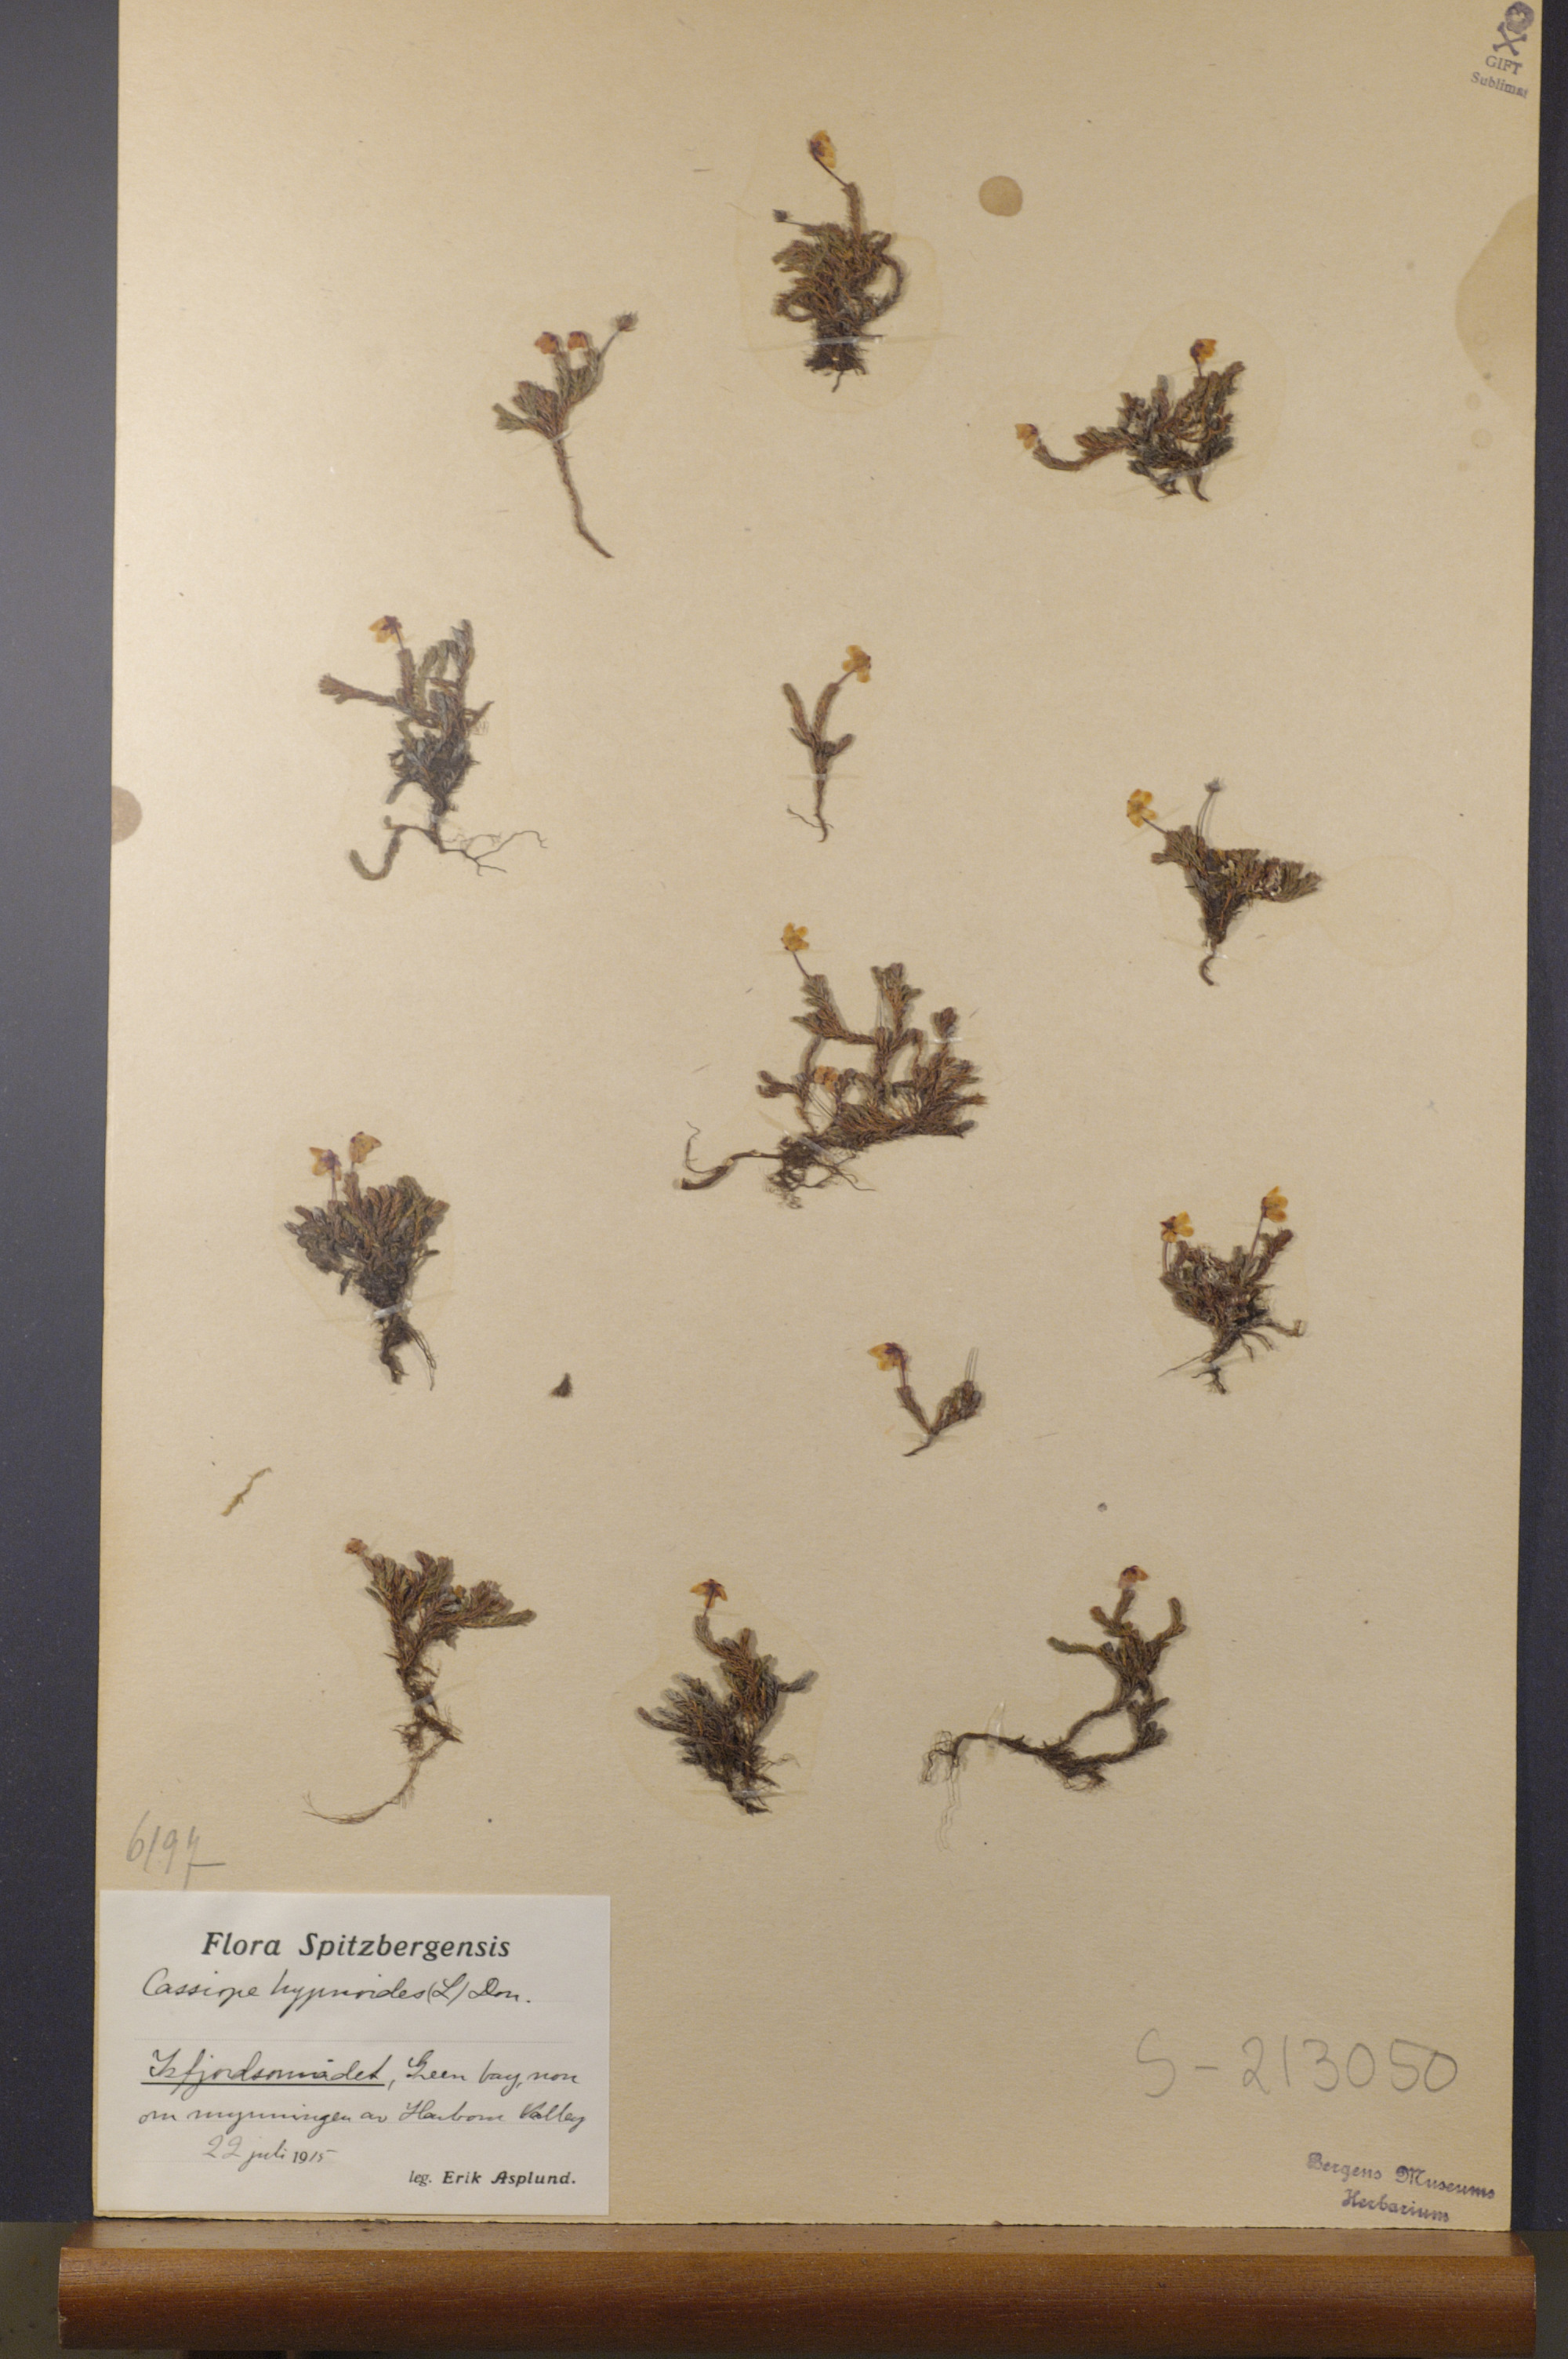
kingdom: Plantae
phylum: Tracheophyta
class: Magnoliopsida
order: Ericales
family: Ericaceae
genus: Harrimanella
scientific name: Harrimanella hypnoides
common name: Moss bell heather
